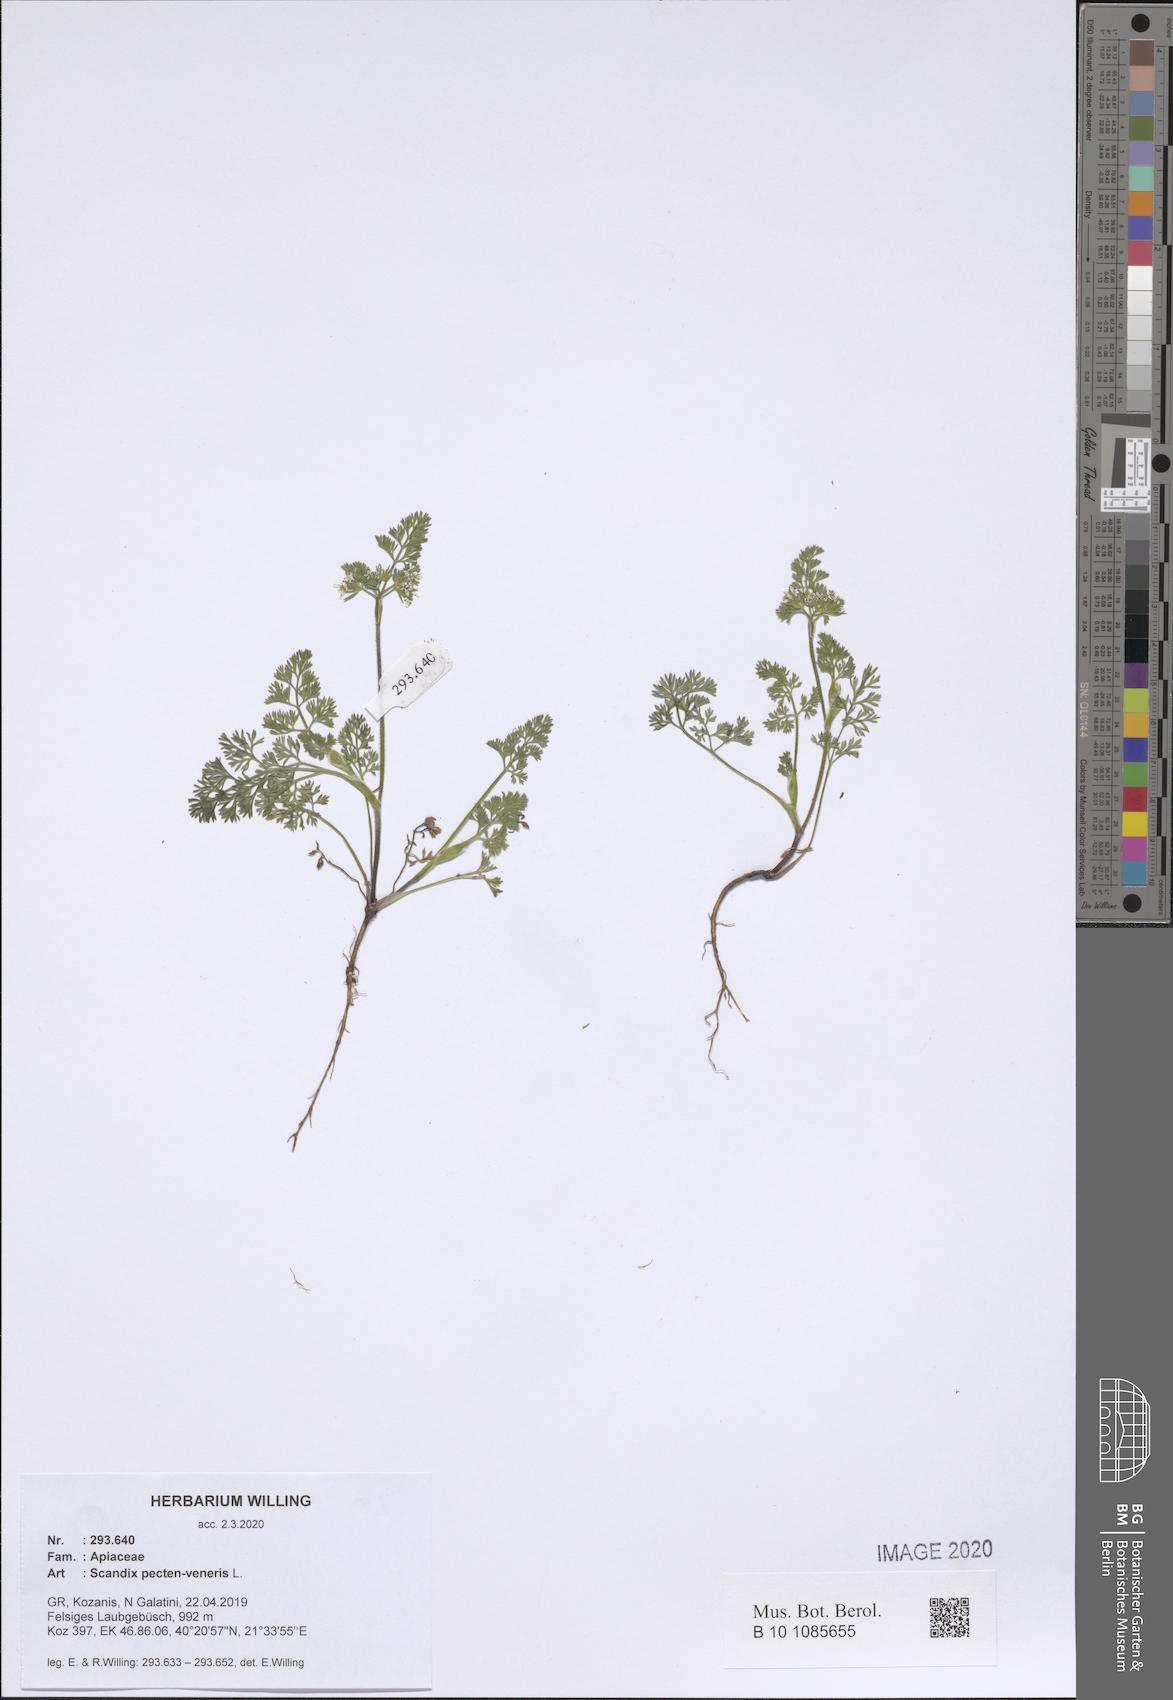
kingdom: Plantae
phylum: Tracheophyta
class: Magnoliopsida
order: Apiales
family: Apiaceae
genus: Scandix
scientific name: Scandix pecten-veneris
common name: Shepherd's-needle
